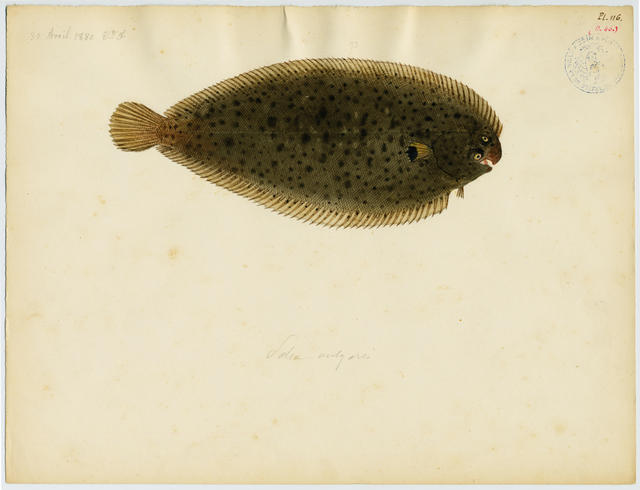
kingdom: Animalia
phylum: Chordata
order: Pleuronectiformes
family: Soleidae
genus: Pegusa
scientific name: Pegusa lascaris
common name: Sand sole
